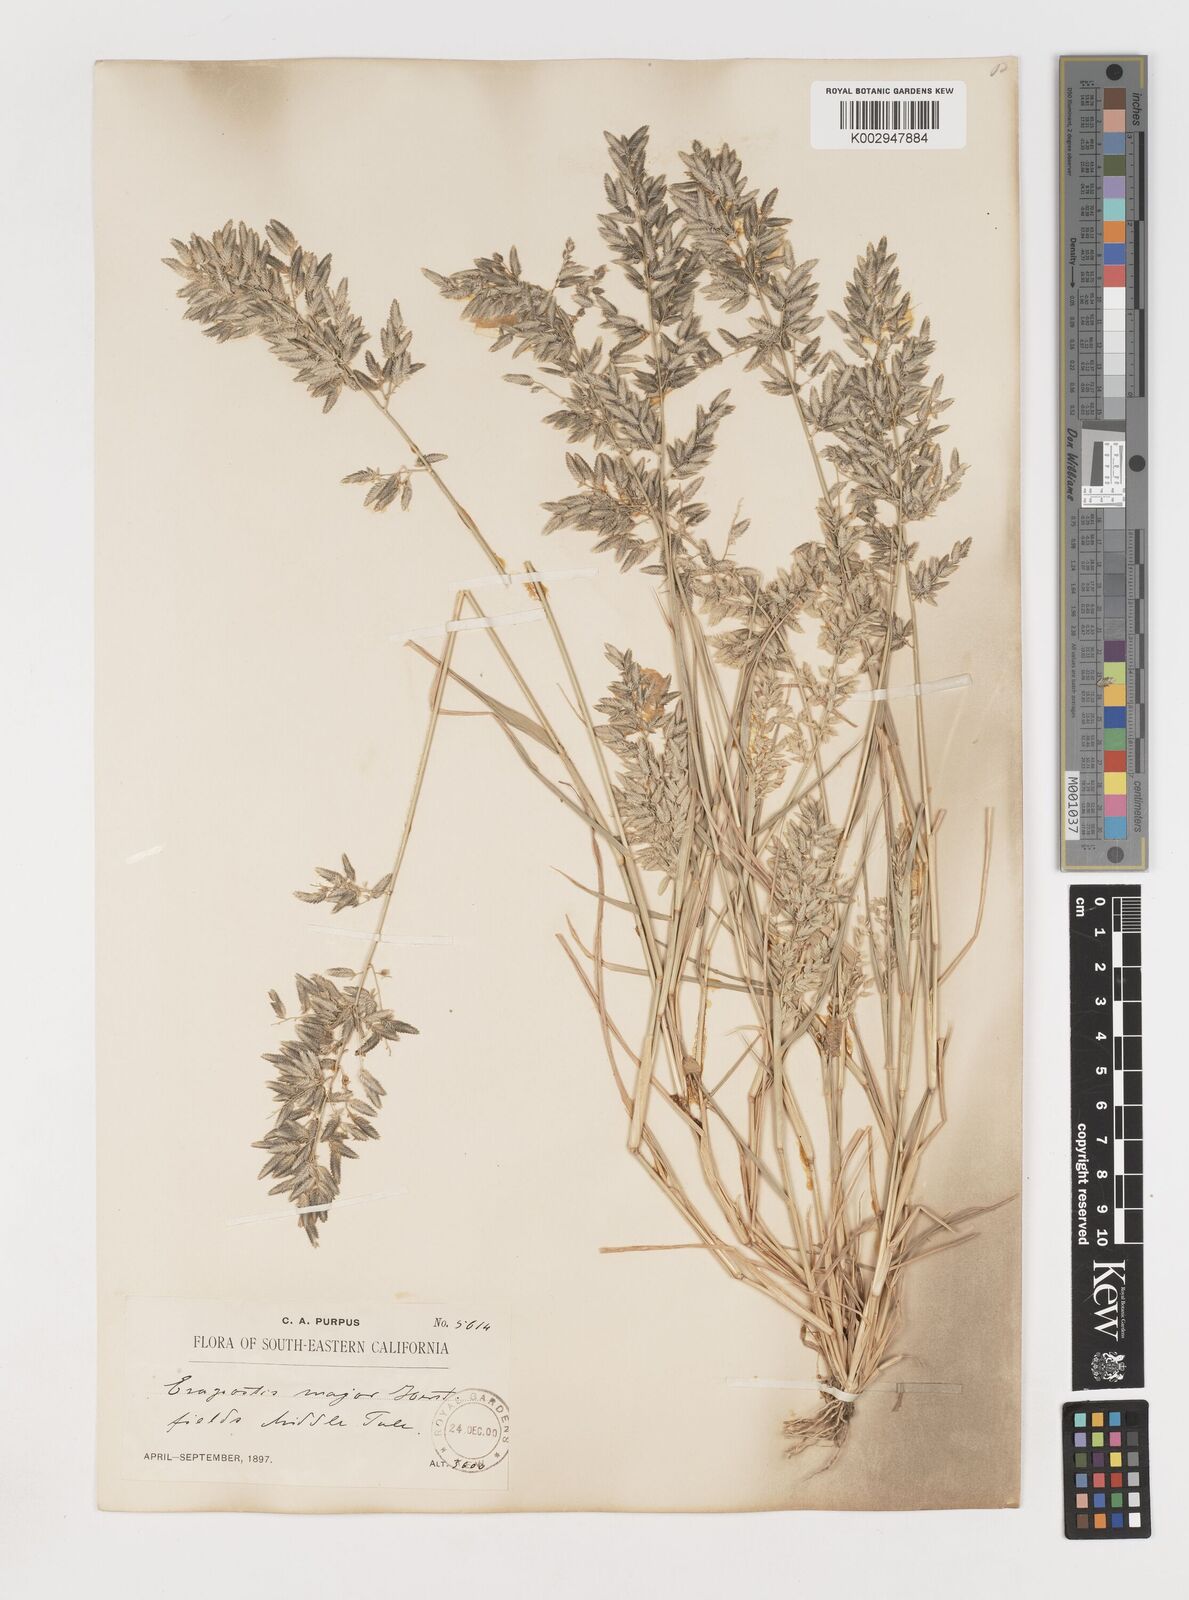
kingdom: Plantae
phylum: Tracheophyta
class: Liliopsida
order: Poales
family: Poaceae
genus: Eragrostis
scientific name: Eragrostis cilianensis
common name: Stinkgrass
